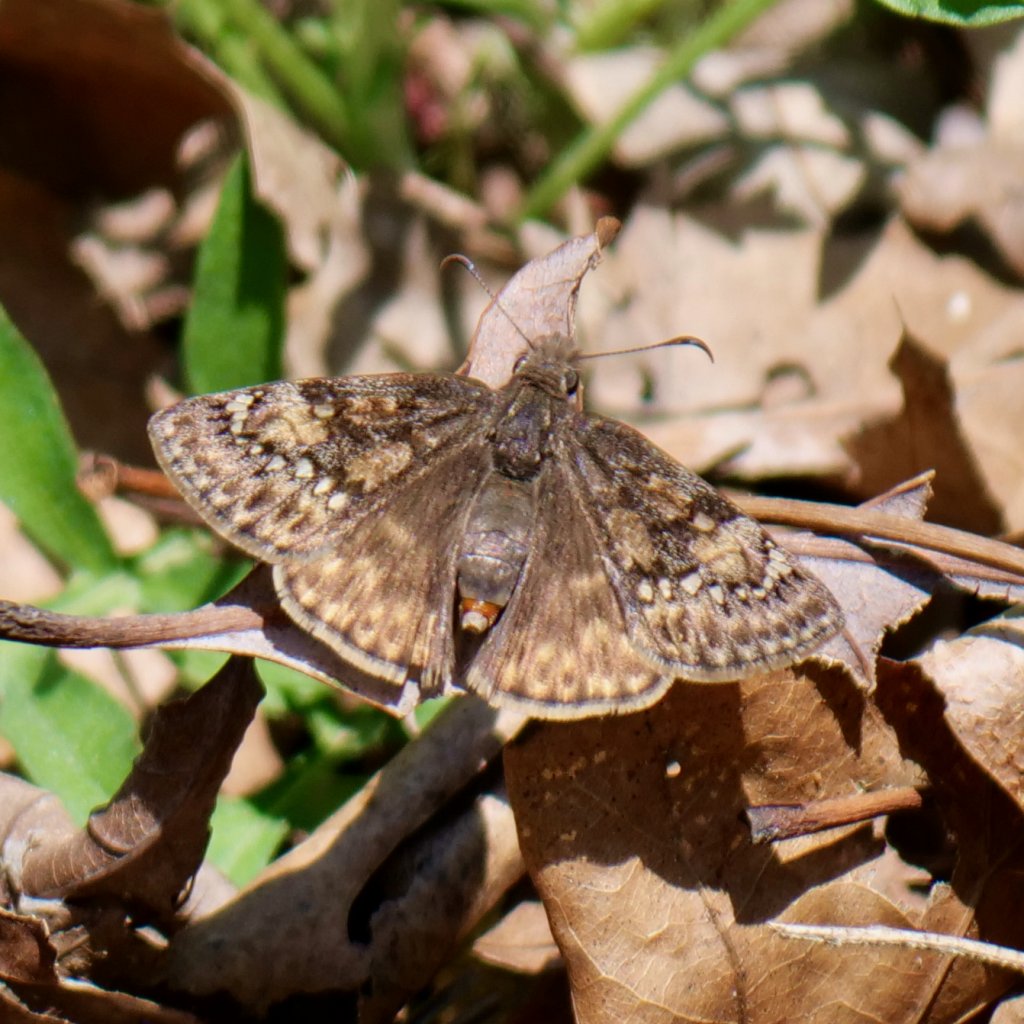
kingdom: Animalia
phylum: Arthropoda
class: Insecta
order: Lepidoptera
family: Hesperiidae
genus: Gesta
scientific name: Gesta
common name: Juvenal's Duskywing
